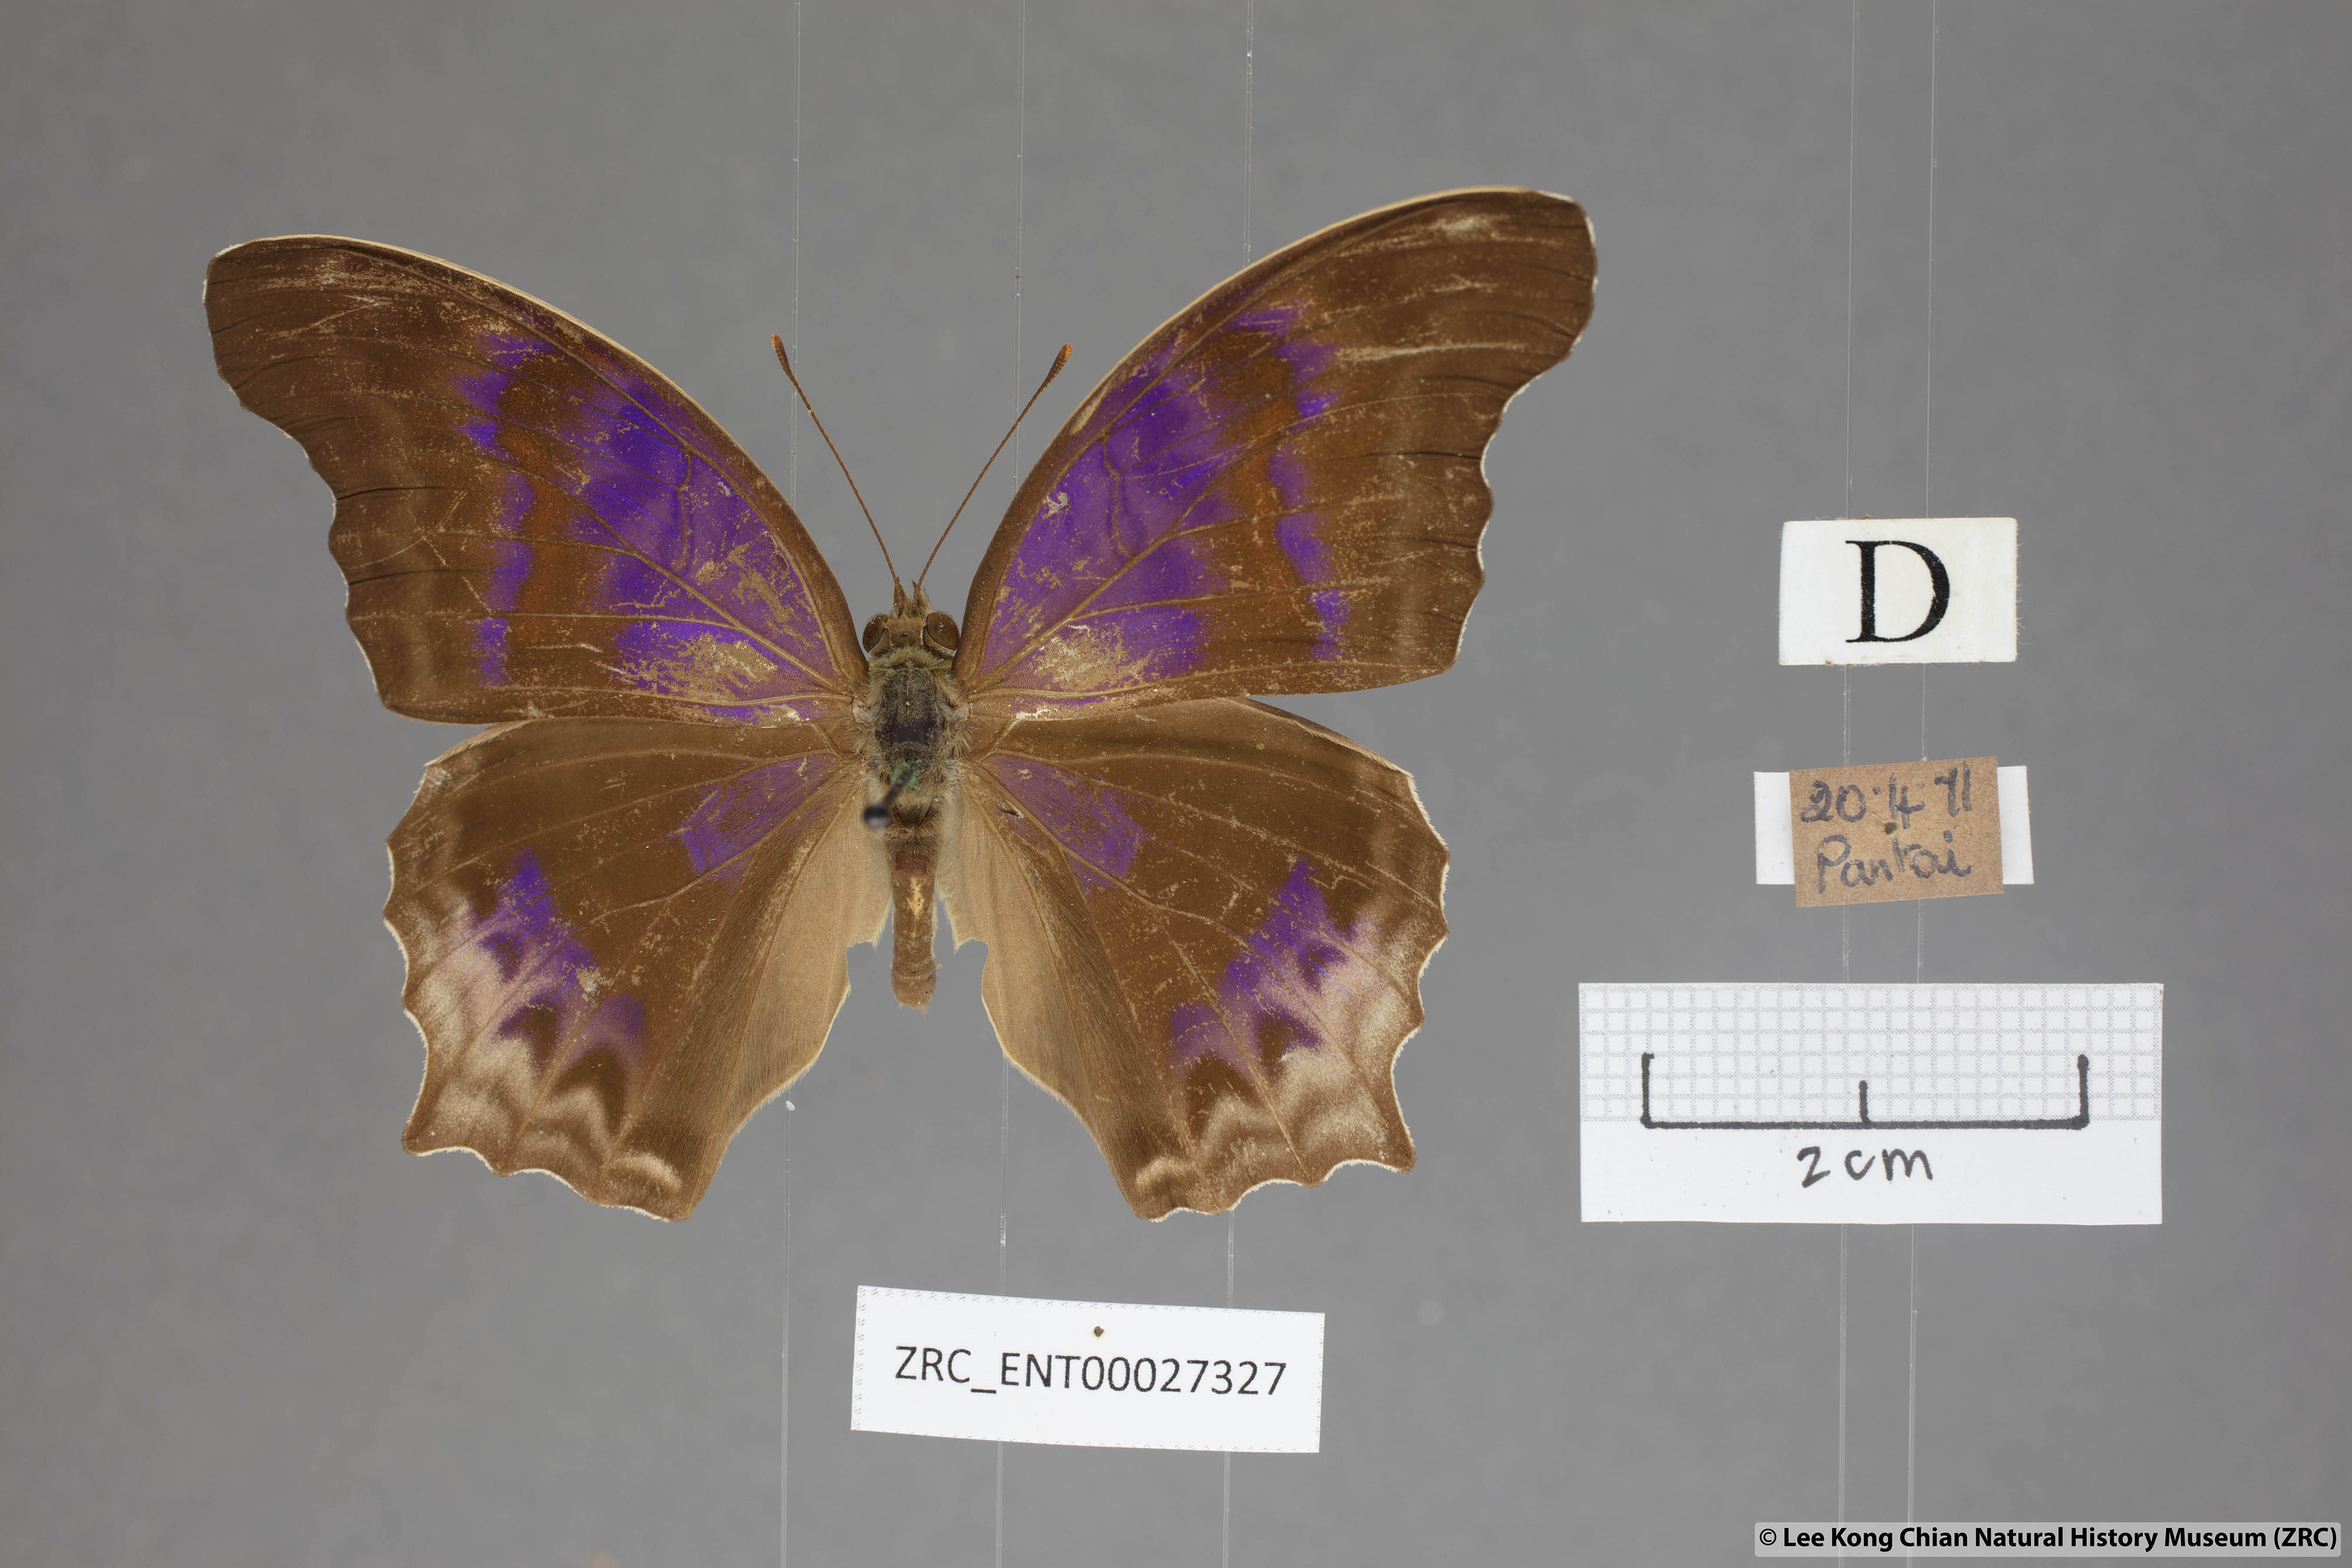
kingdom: Animalia
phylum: Arthropoda
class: Insecta
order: Lepidoptera
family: Nymphalidae
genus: Terinos
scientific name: Terinos clarissa
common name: Malayan assyrian
